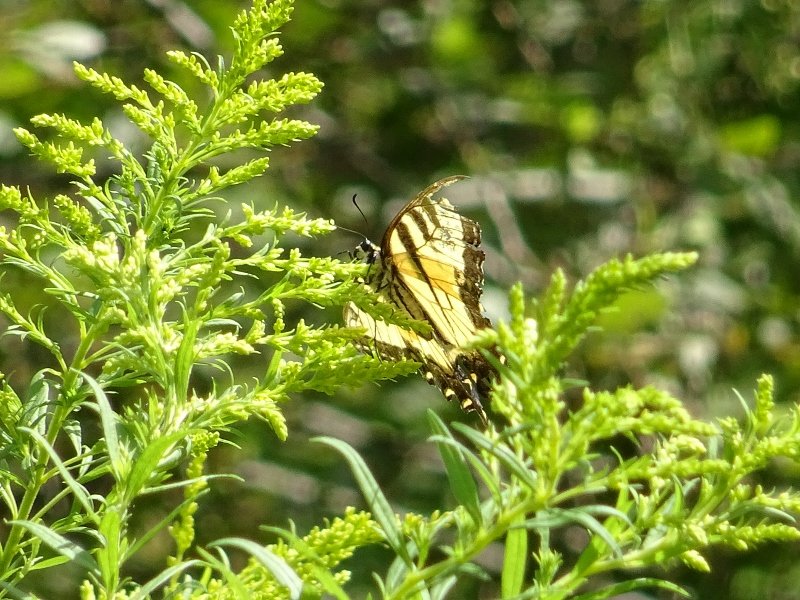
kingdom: Animalia
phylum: Arthropoda
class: Insecta
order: Lepidoptera
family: Papilionidae
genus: Pterourus
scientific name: Pterourus glaucus
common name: Eastern Tiger Swallowtail
